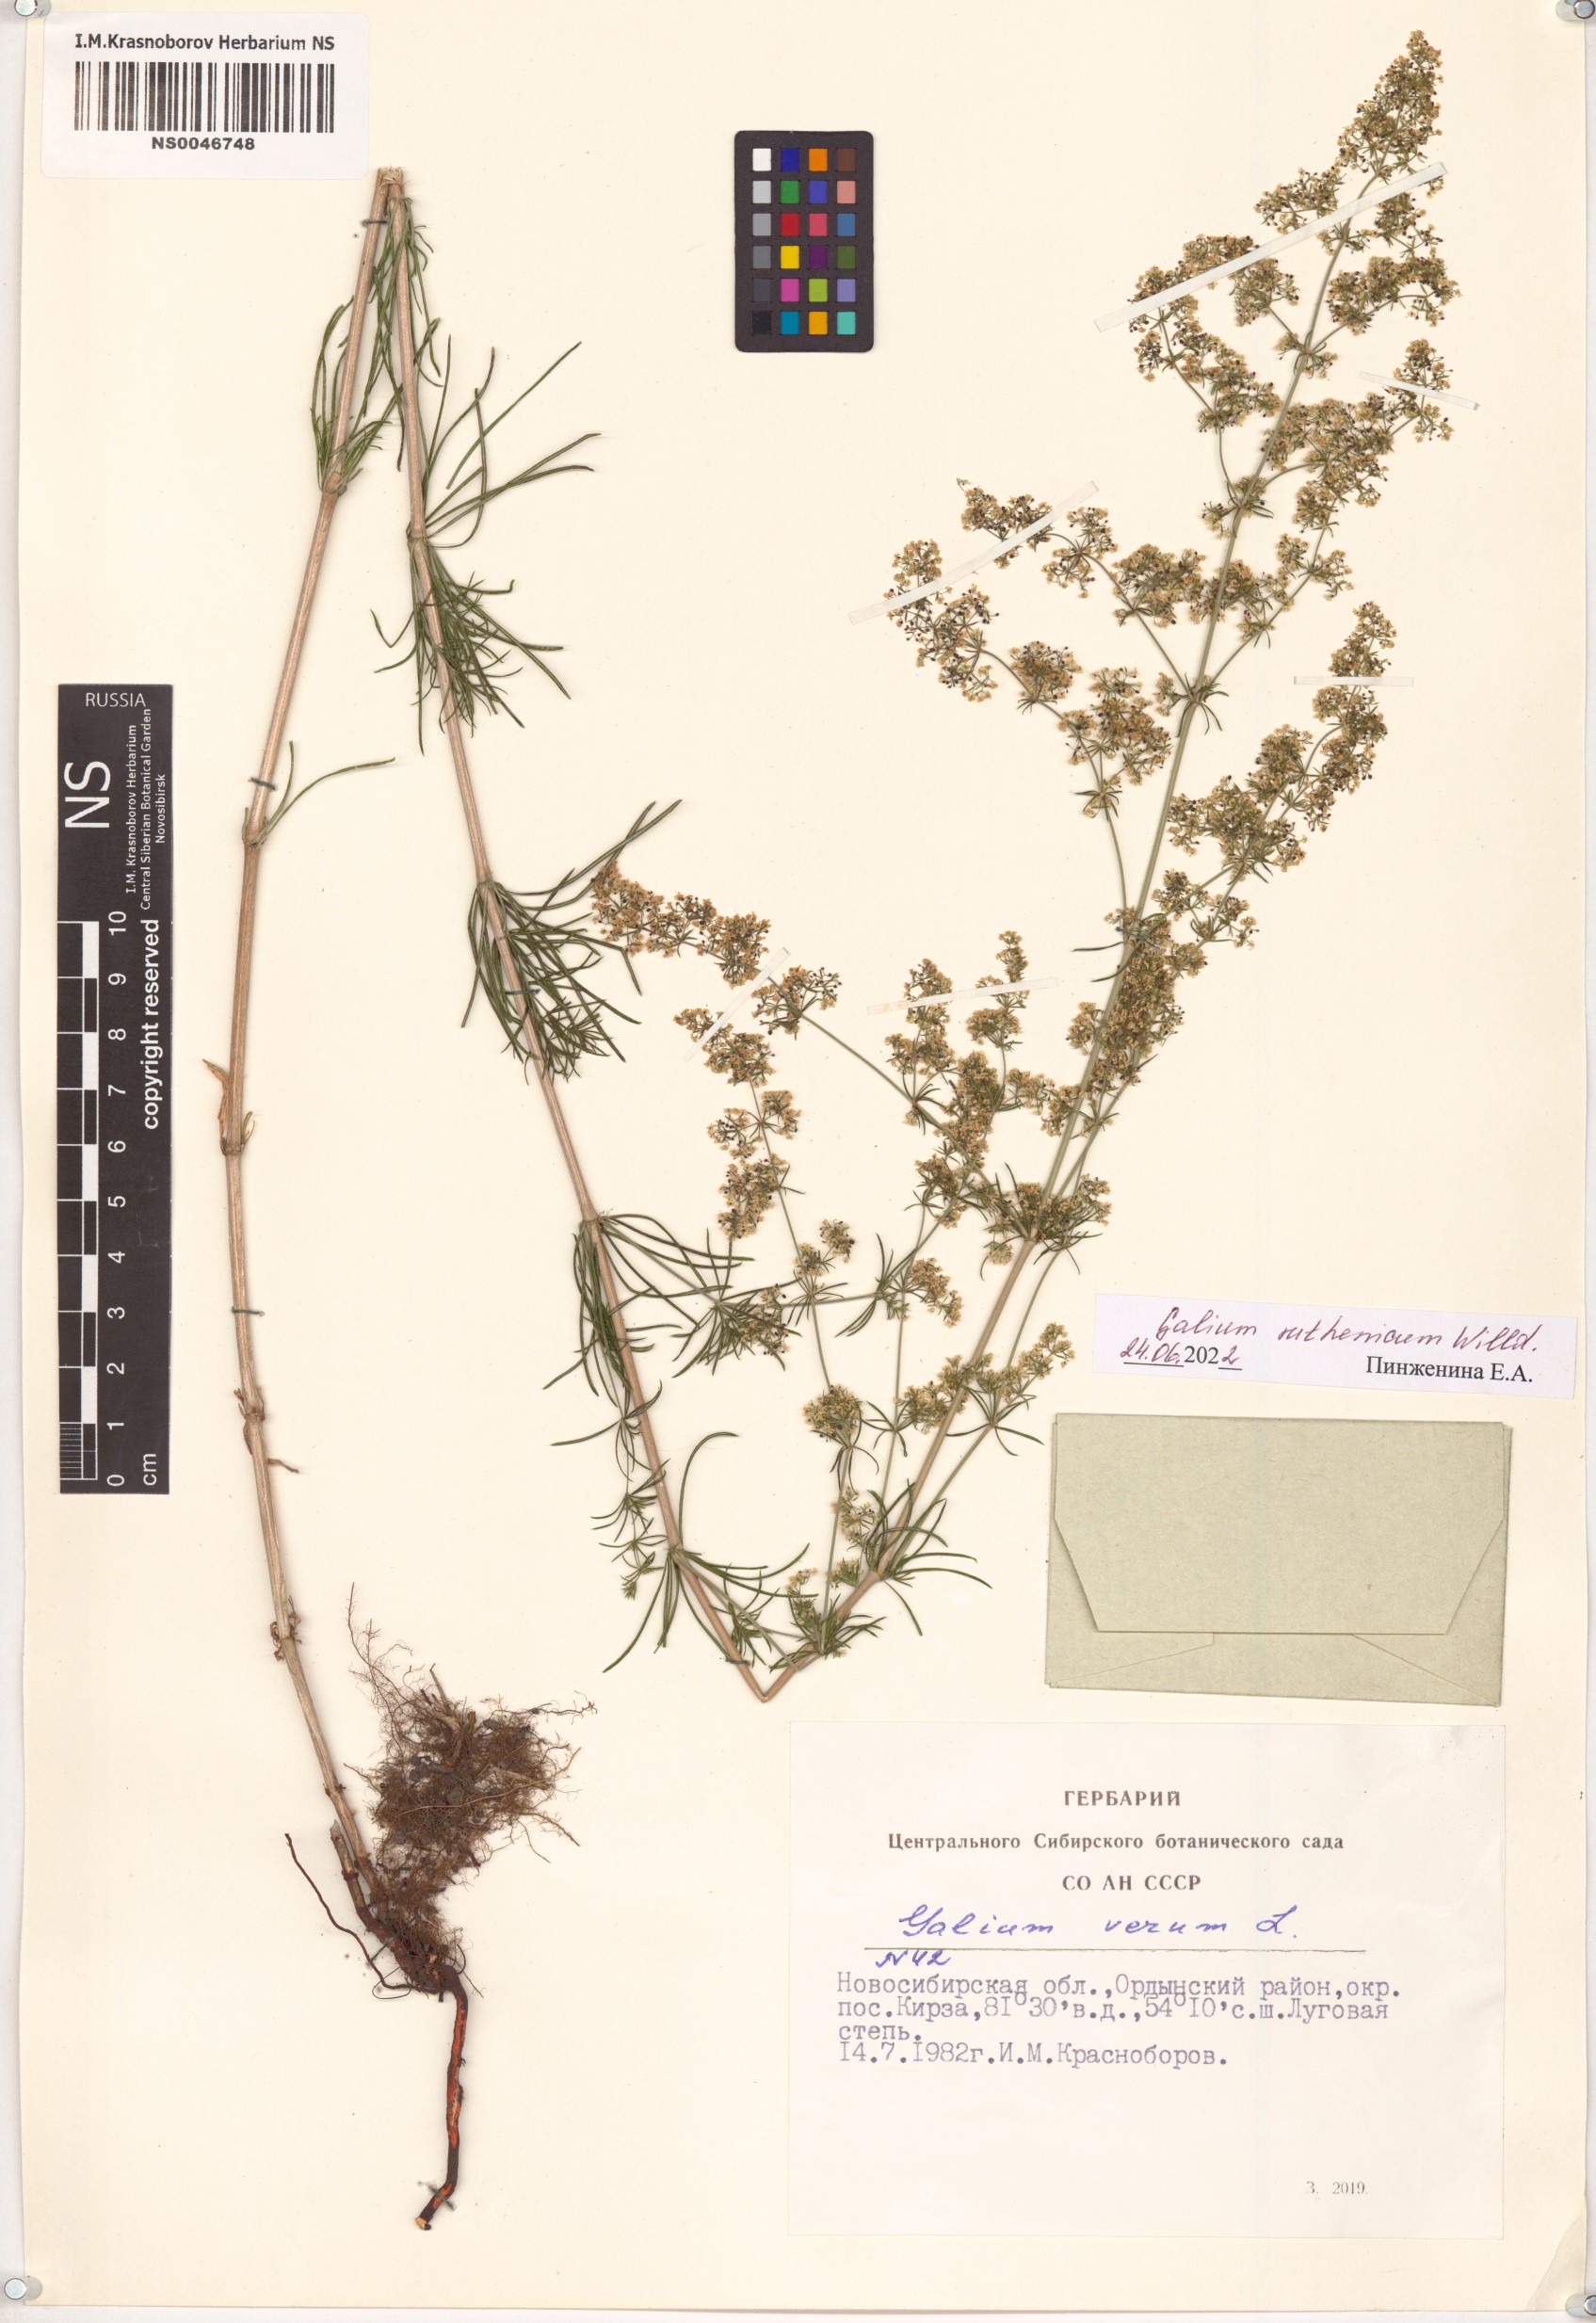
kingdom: Plantae
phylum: Tracheophyta
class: Magnoliopsida
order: Gentianales
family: Rubiaceae
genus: Galium
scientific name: Galium verum
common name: Lady's bedstraw
